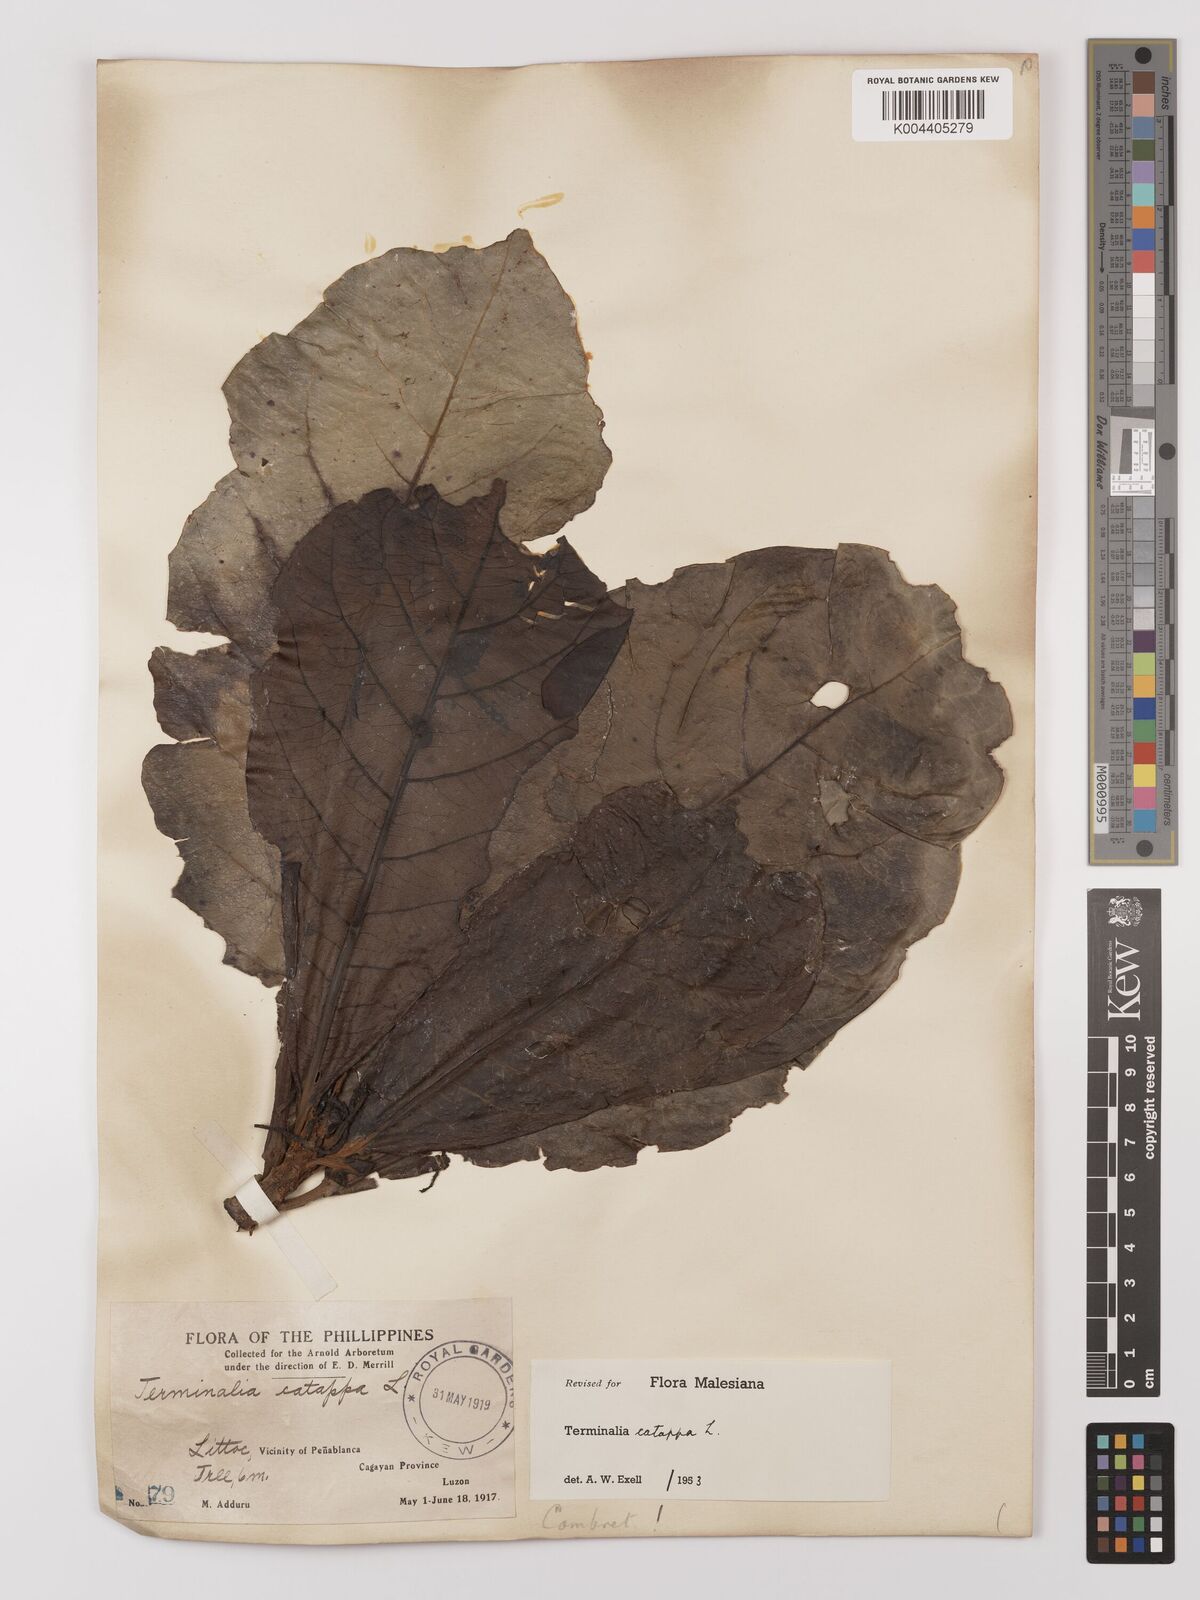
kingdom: Plantae
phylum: Tracheophyta
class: Magnoliopsida
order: Myrtales
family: Combretaceae
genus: Terminalia
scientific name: Terminalia catappa
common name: Tropical almond
